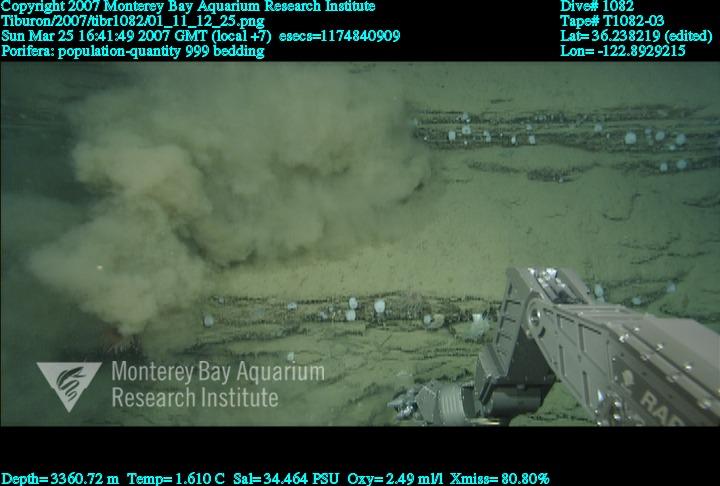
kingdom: Animalia
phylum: Porifera
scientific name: Porifera
